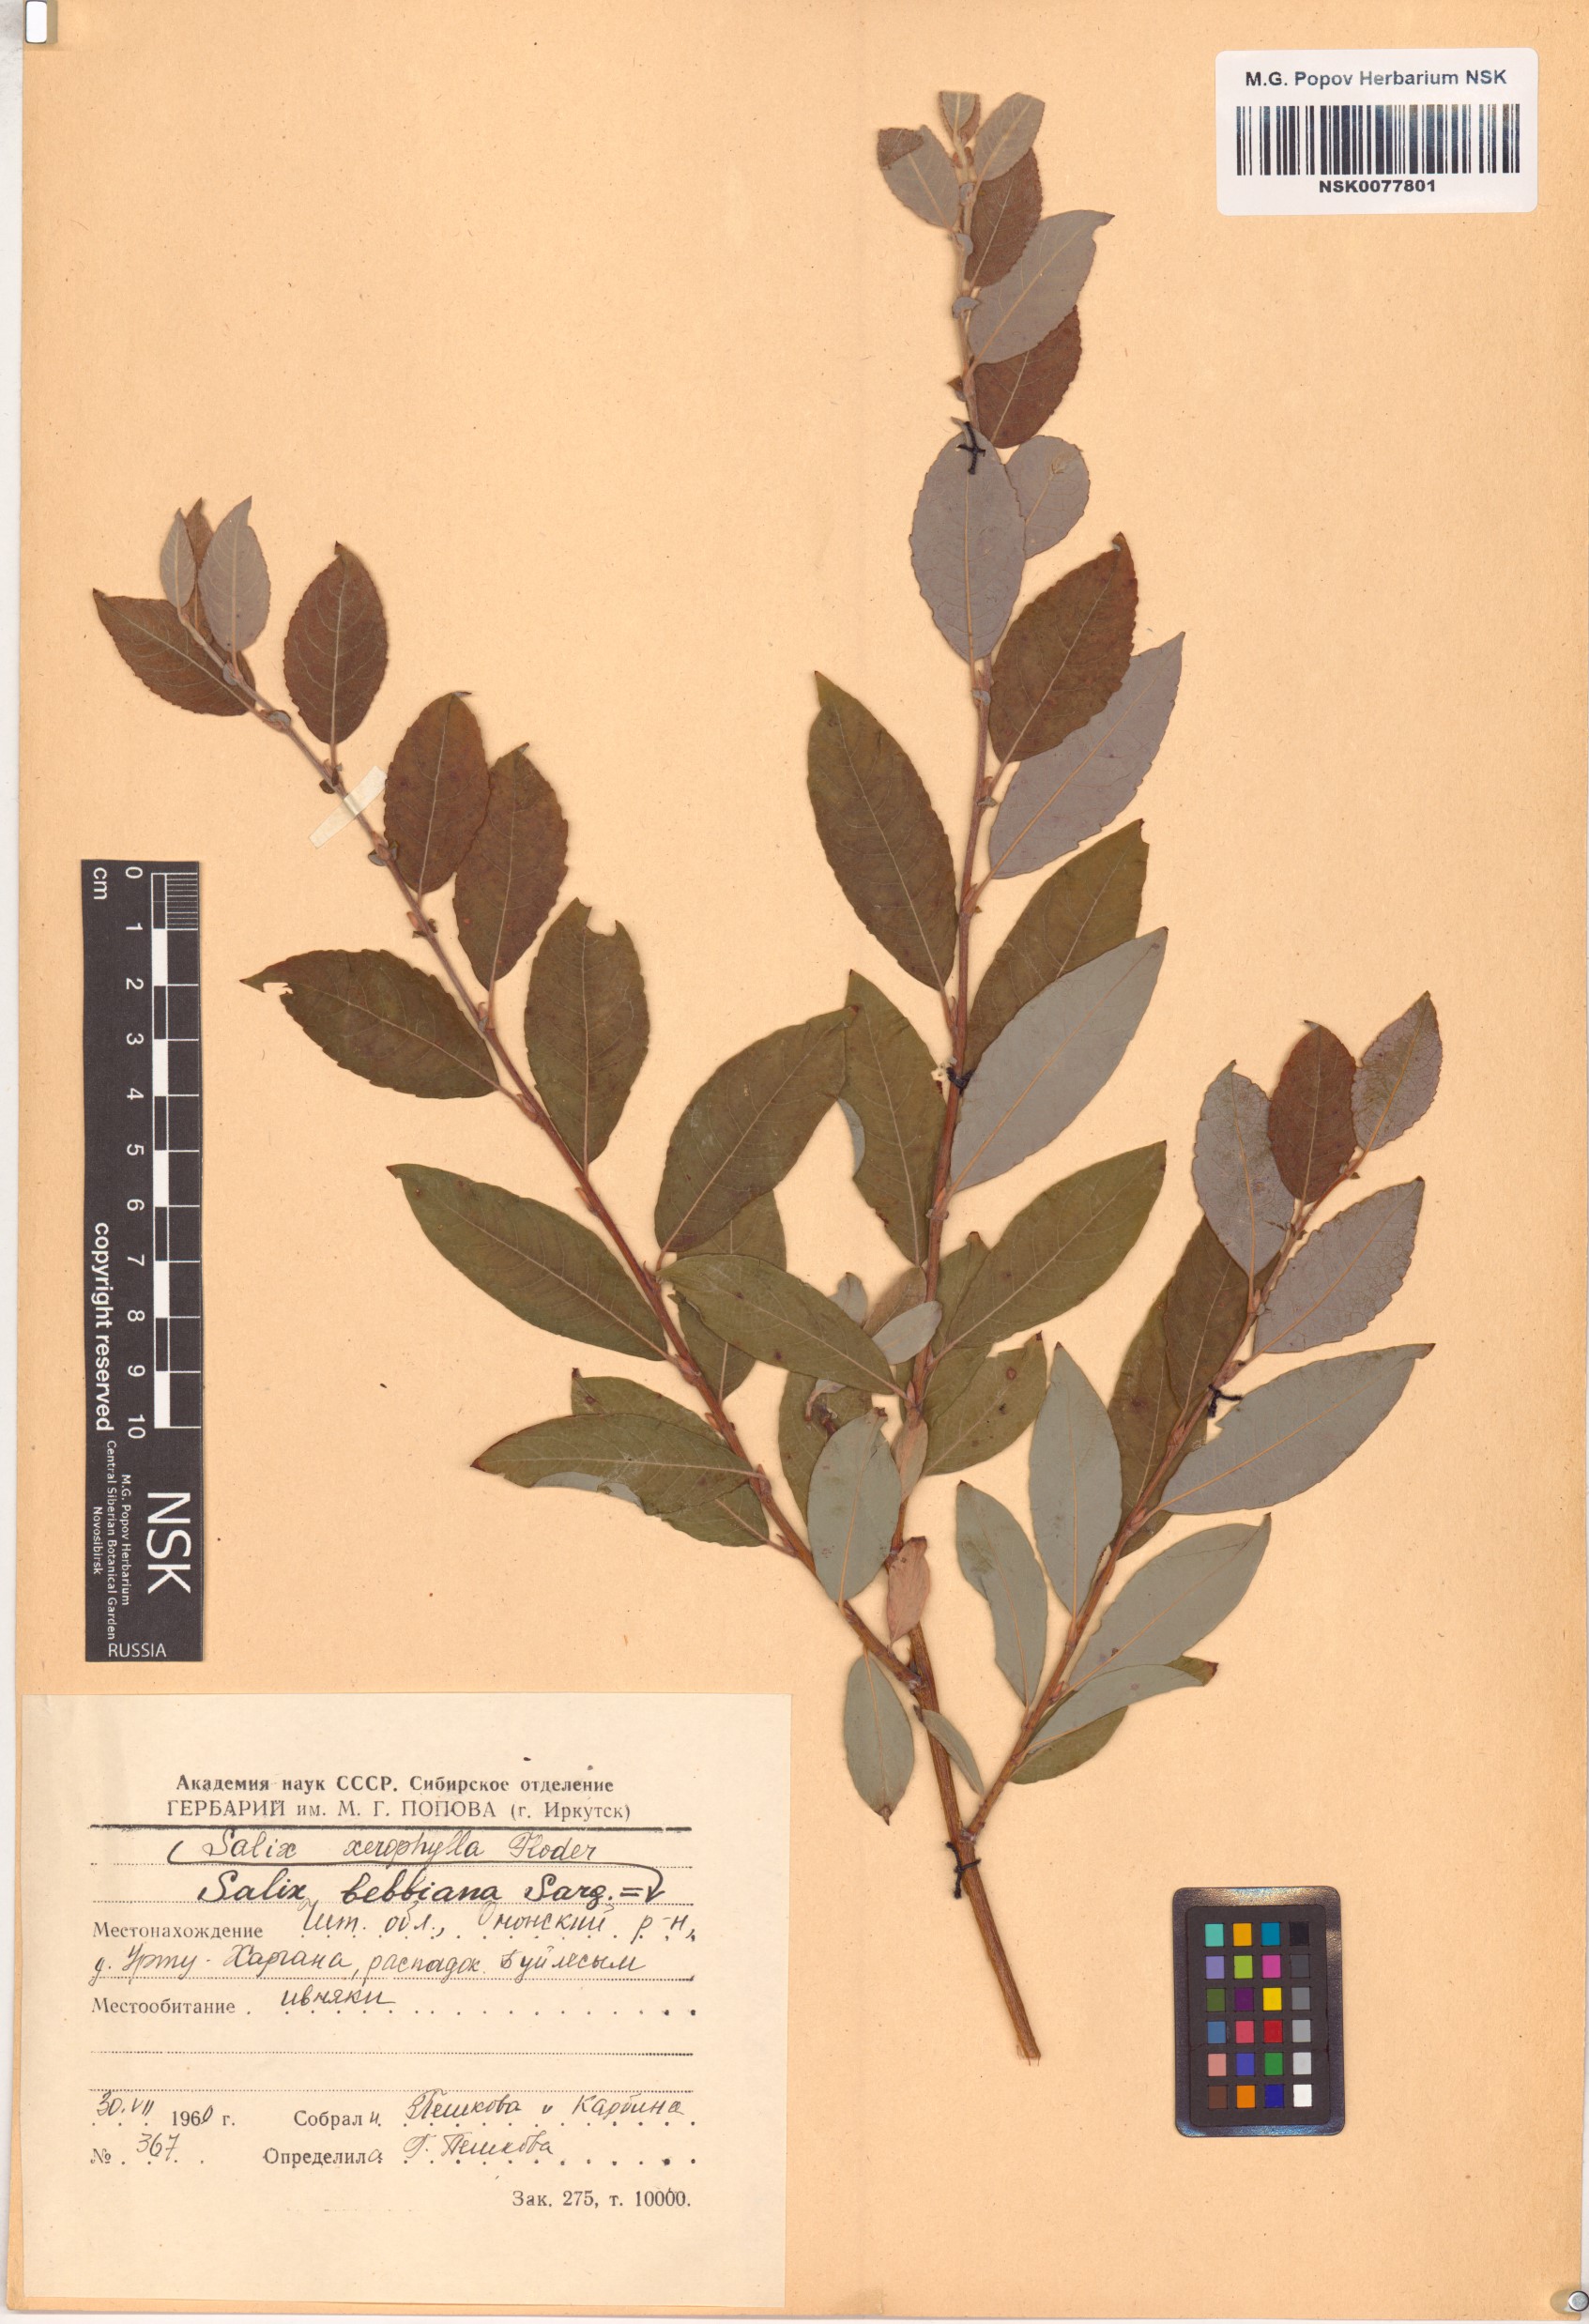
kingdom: Plantae
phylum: Tracheophyta
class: Magnoliopsida
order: Malpighiales
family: Salicaceae
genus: Salix
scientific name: Salix bebbiana
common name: Bebb's willow
